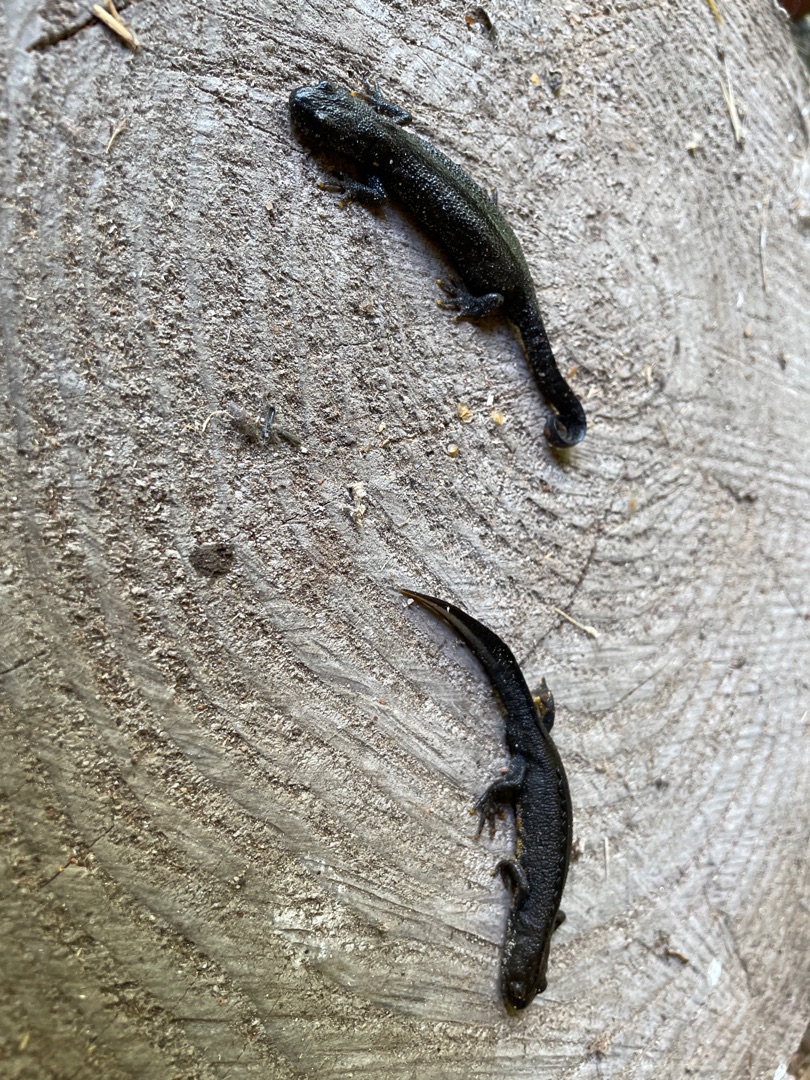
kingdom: Animalia
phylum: Chordata
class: Amphibia
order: Caudata
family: Salamandridae
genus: Triturus
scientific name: Triturus cristatus
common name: Stor vandsalamander
